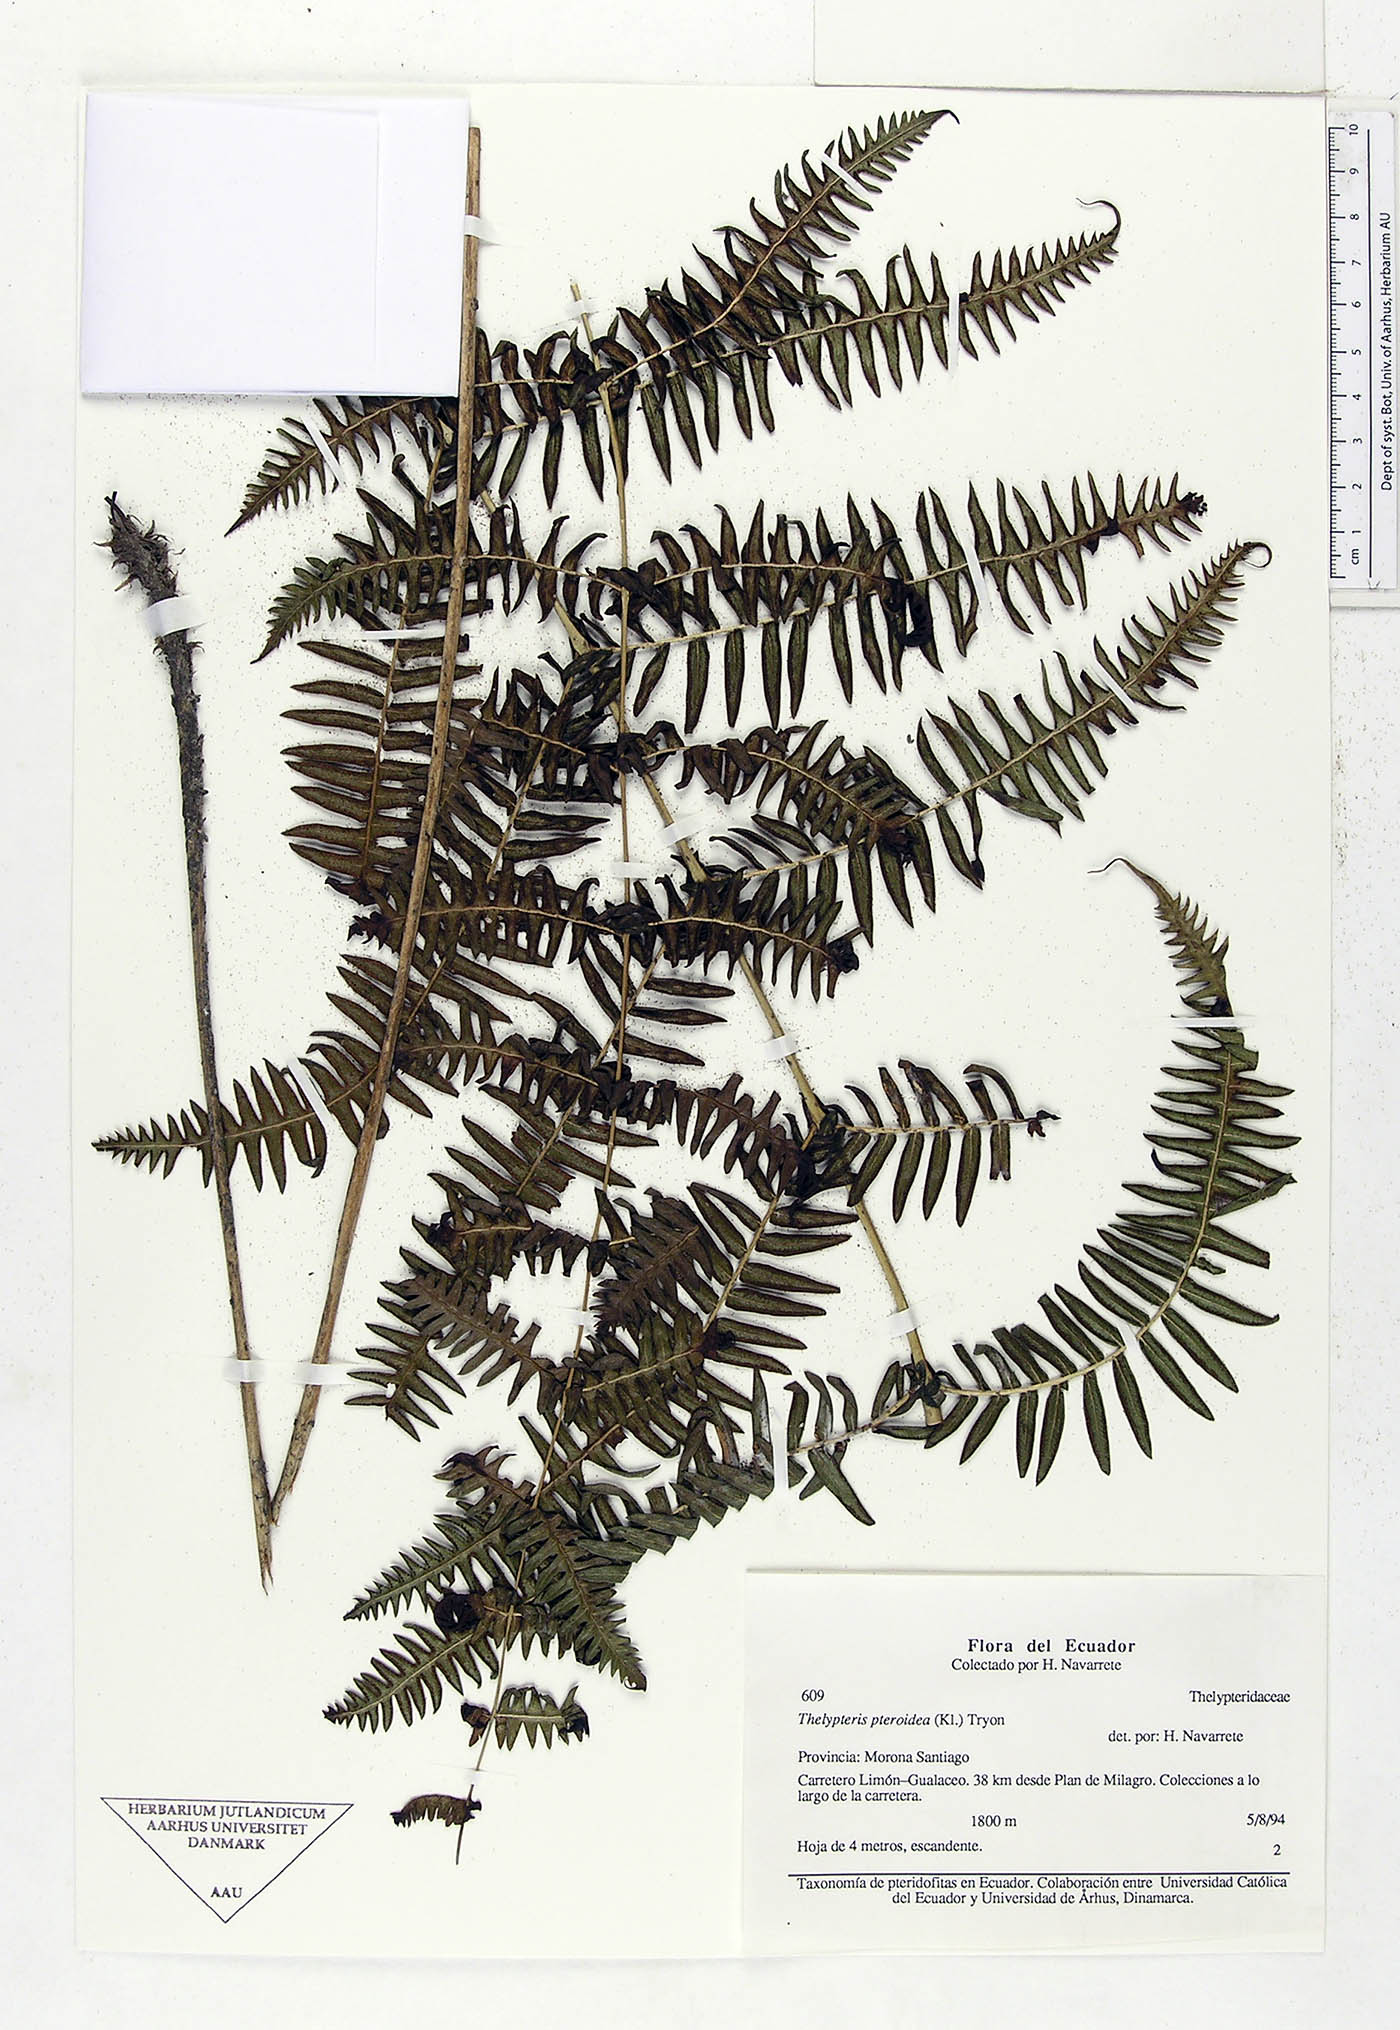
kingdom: Plantae
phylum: Tracheophyta
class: Polypodiopsida
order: Polypodiales
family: Thelypteridaceae
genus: Amauropelta
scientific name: Amauropelta pteroidea
